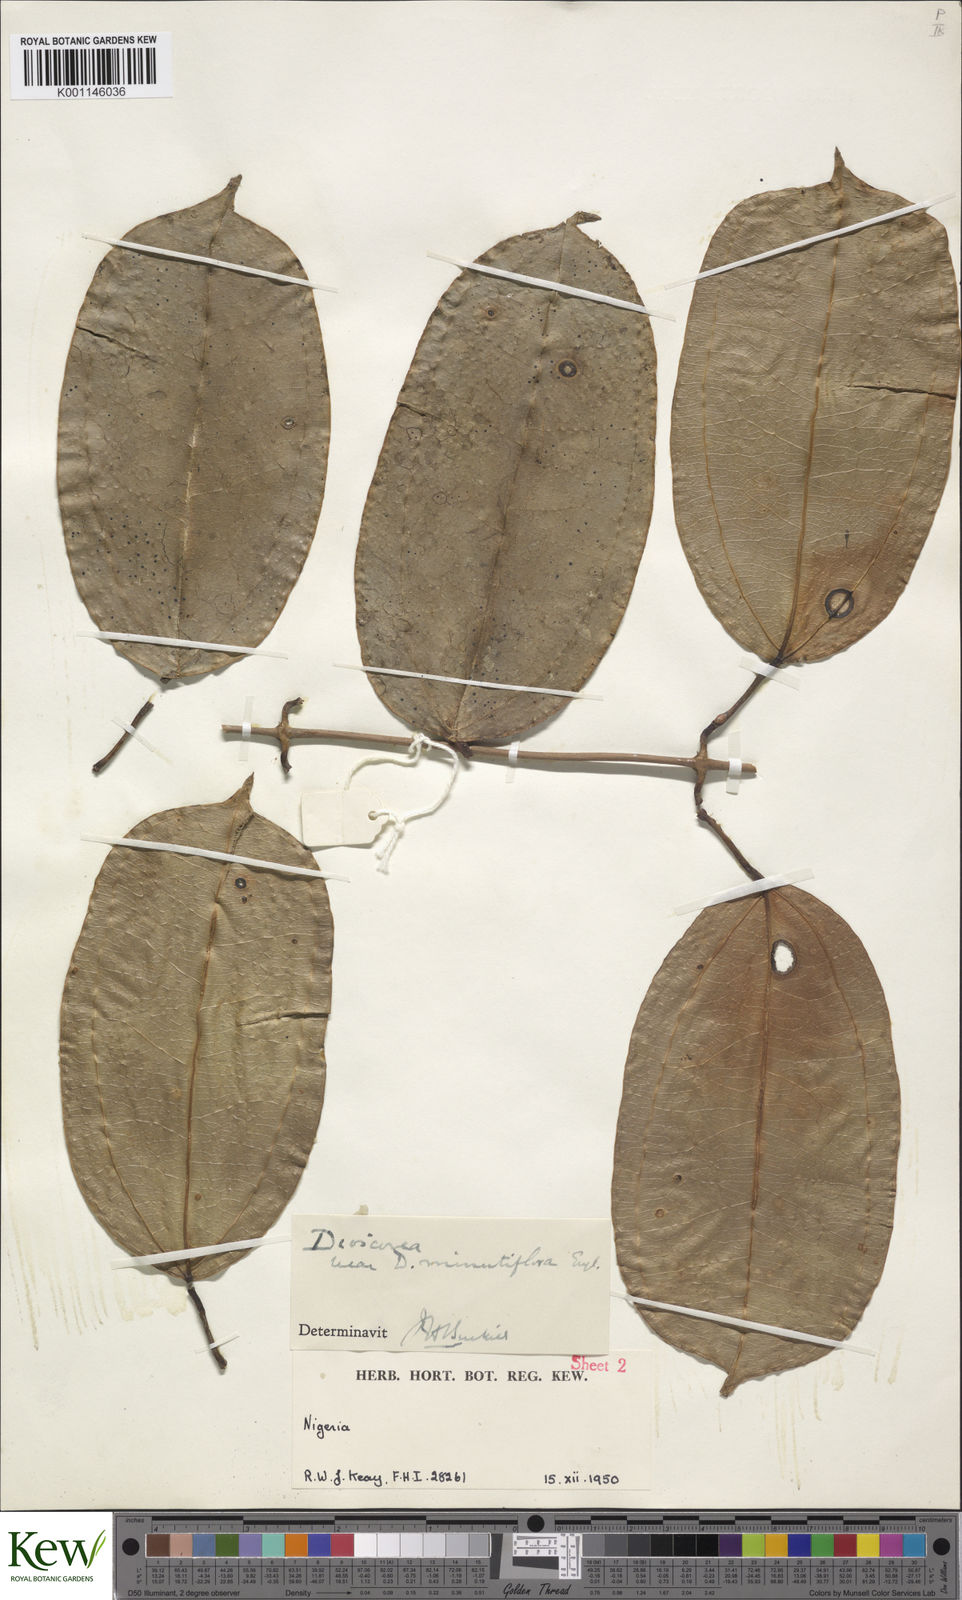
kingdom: Plantae
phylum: Tracheophyta
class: Liliopsida
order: Dioscoreales
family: Dioscoreaceae
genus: Dioscorea
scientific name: Dioscorea minutiflora
